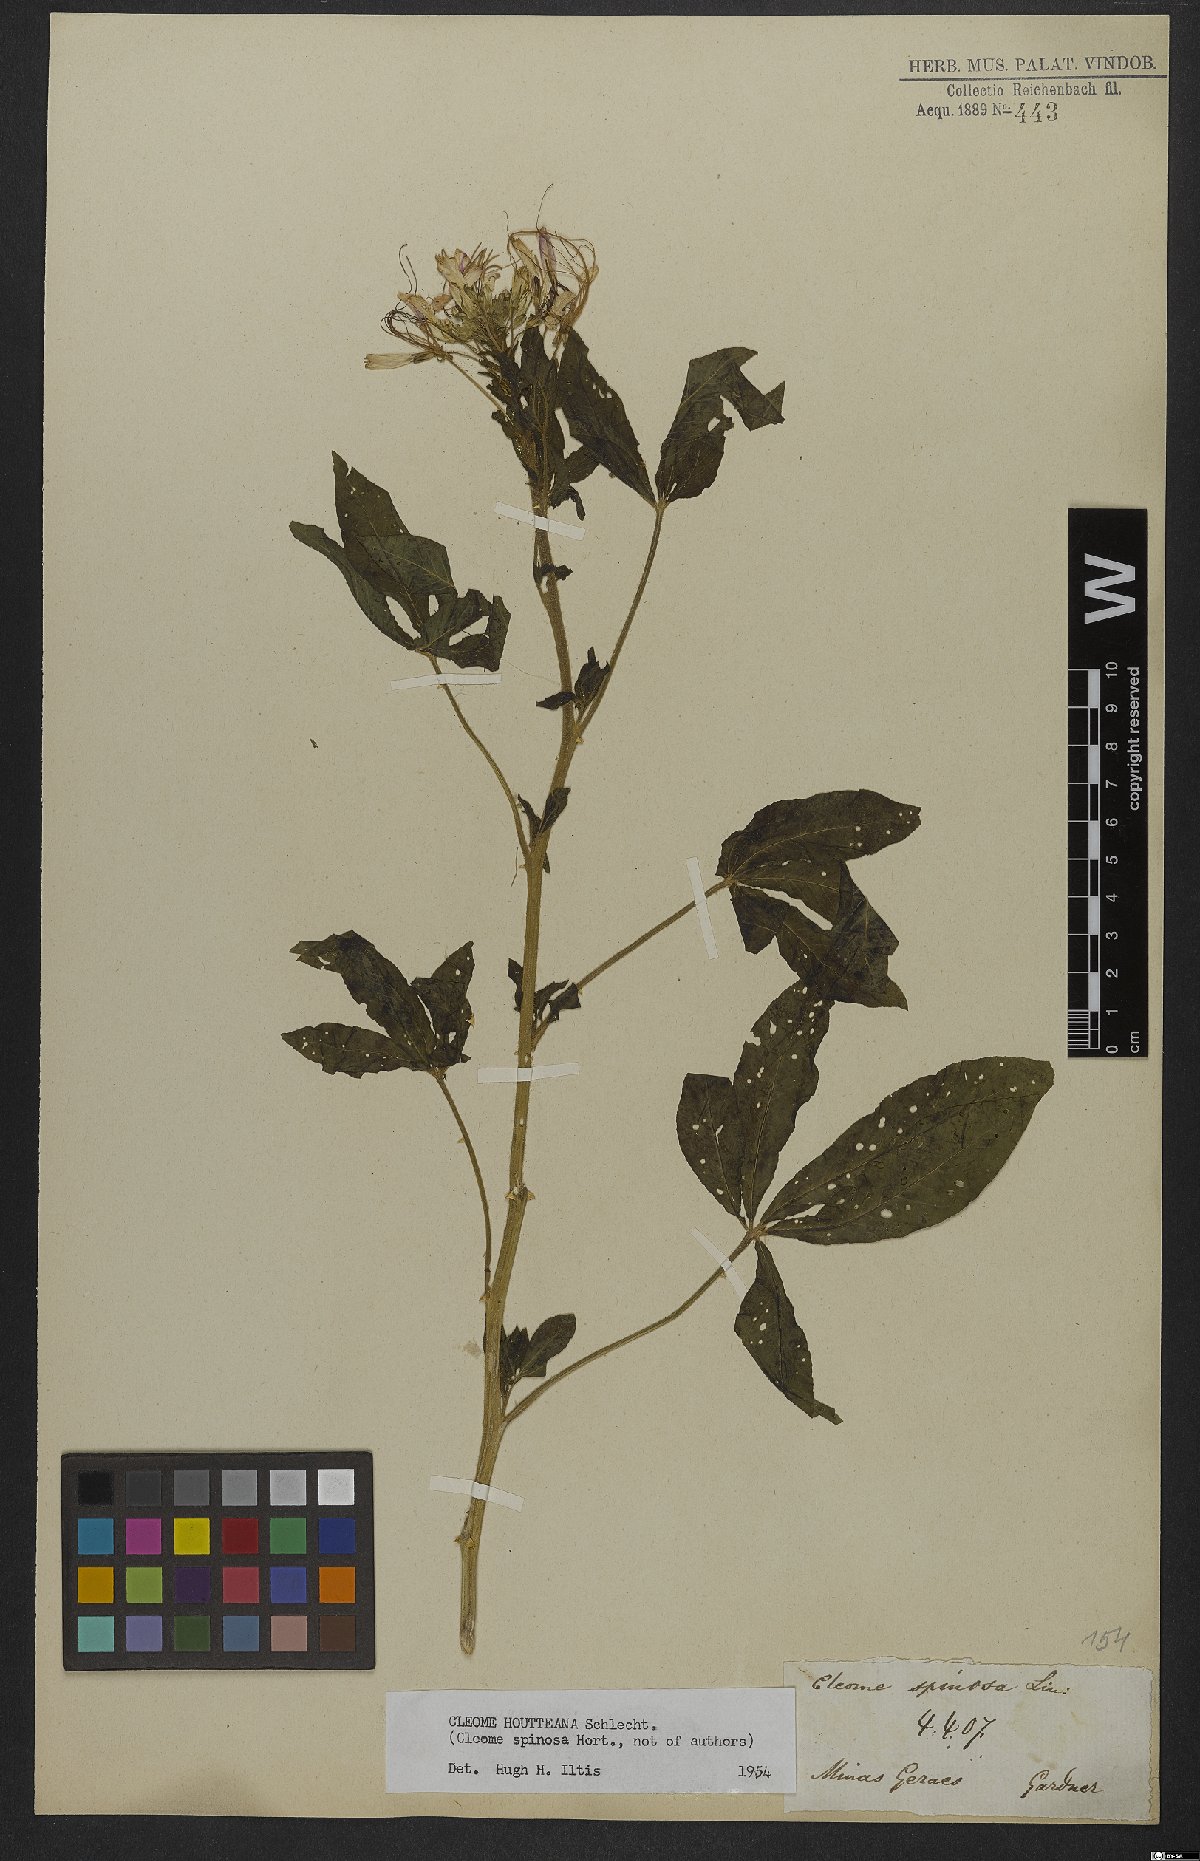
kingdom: Plantae
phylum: Tracheophyta
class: Magnoliopsida
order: Brassicales
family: Cleomaceae
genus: Tarenaya
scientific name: Tarenaya houtteana
